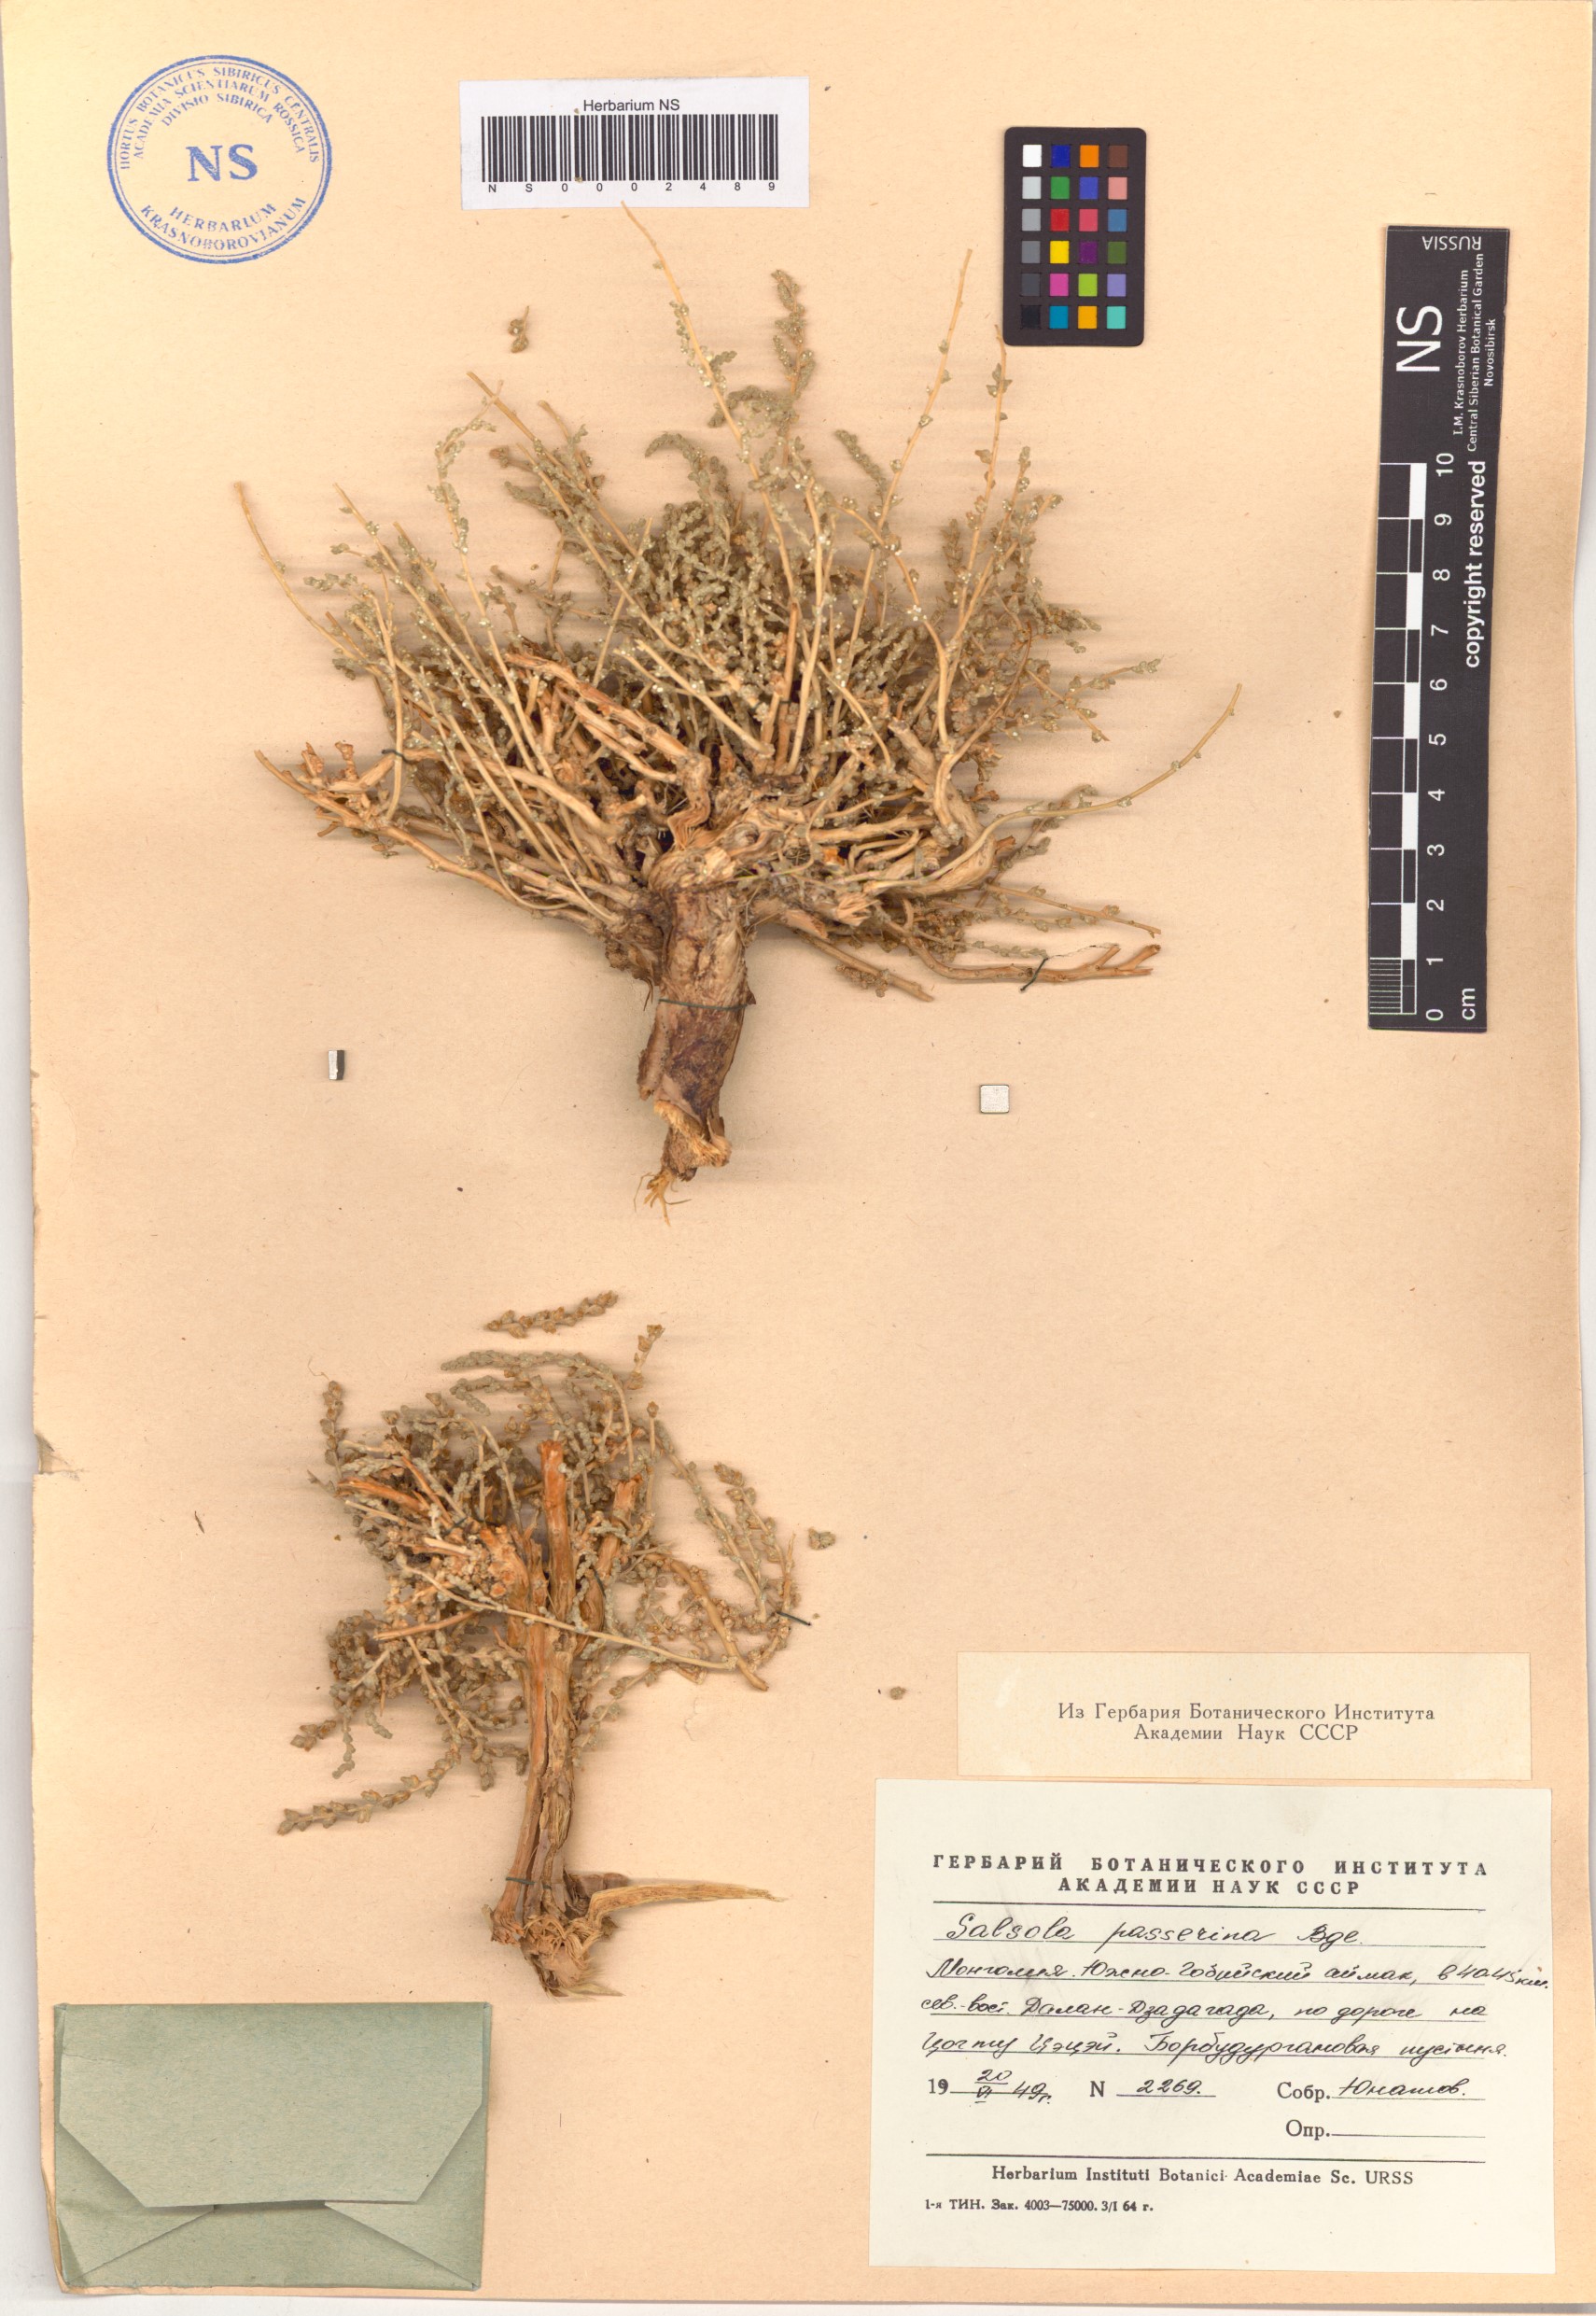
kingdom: Plantae
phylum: Tracheophyta
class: Magnoliopsida
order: Caryophyllales
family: Amaranthaceae
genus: Caroxylon
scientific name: Caroxylon passerinum
